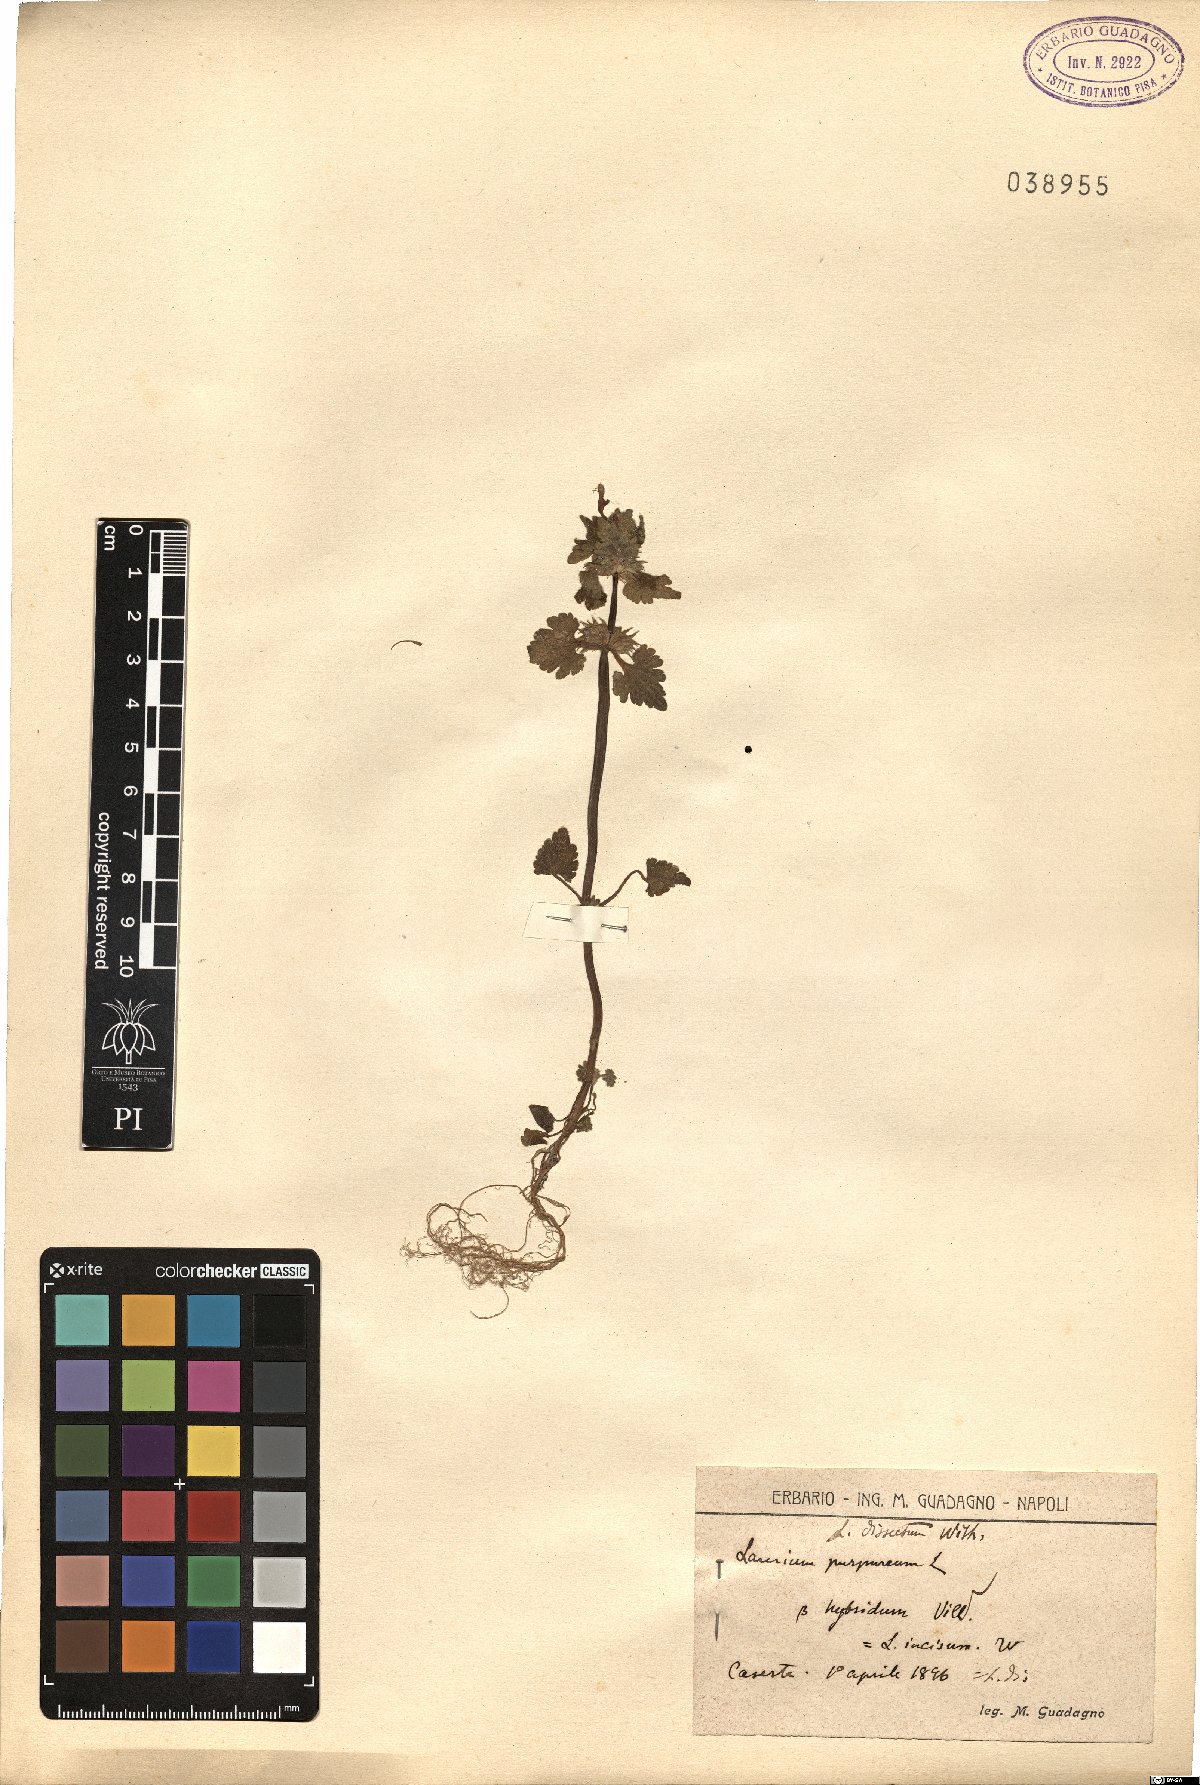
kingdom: Plantae
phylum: Tracheophyta
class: Magnoliopsida
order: Lamiales
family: Lamiaceae
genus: Lamium
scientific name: Lamium hybridum
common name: Cut-leaved dead-nettle
